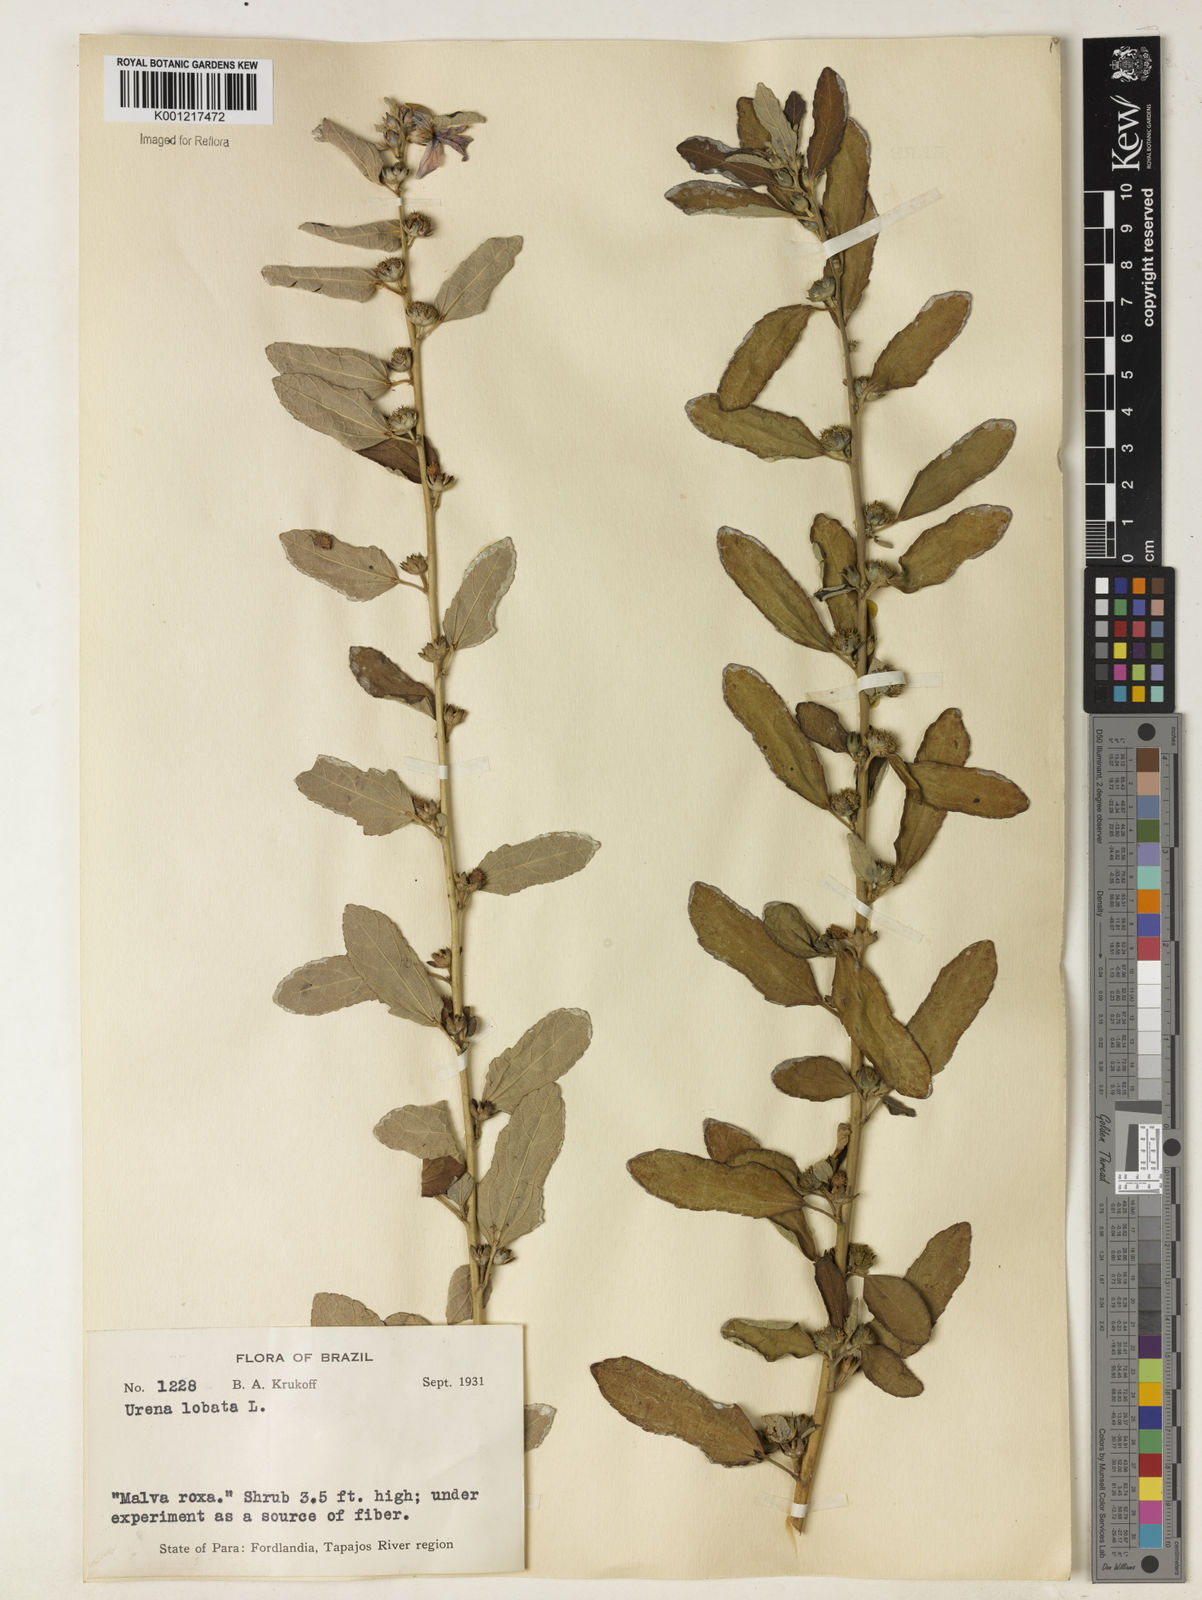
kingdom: Plantae
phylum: Tracheophyta
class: Magnoliopsida
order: Malvales
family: Malvaceae
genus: Urena
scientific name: Urena lobata
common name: Caesarweed
